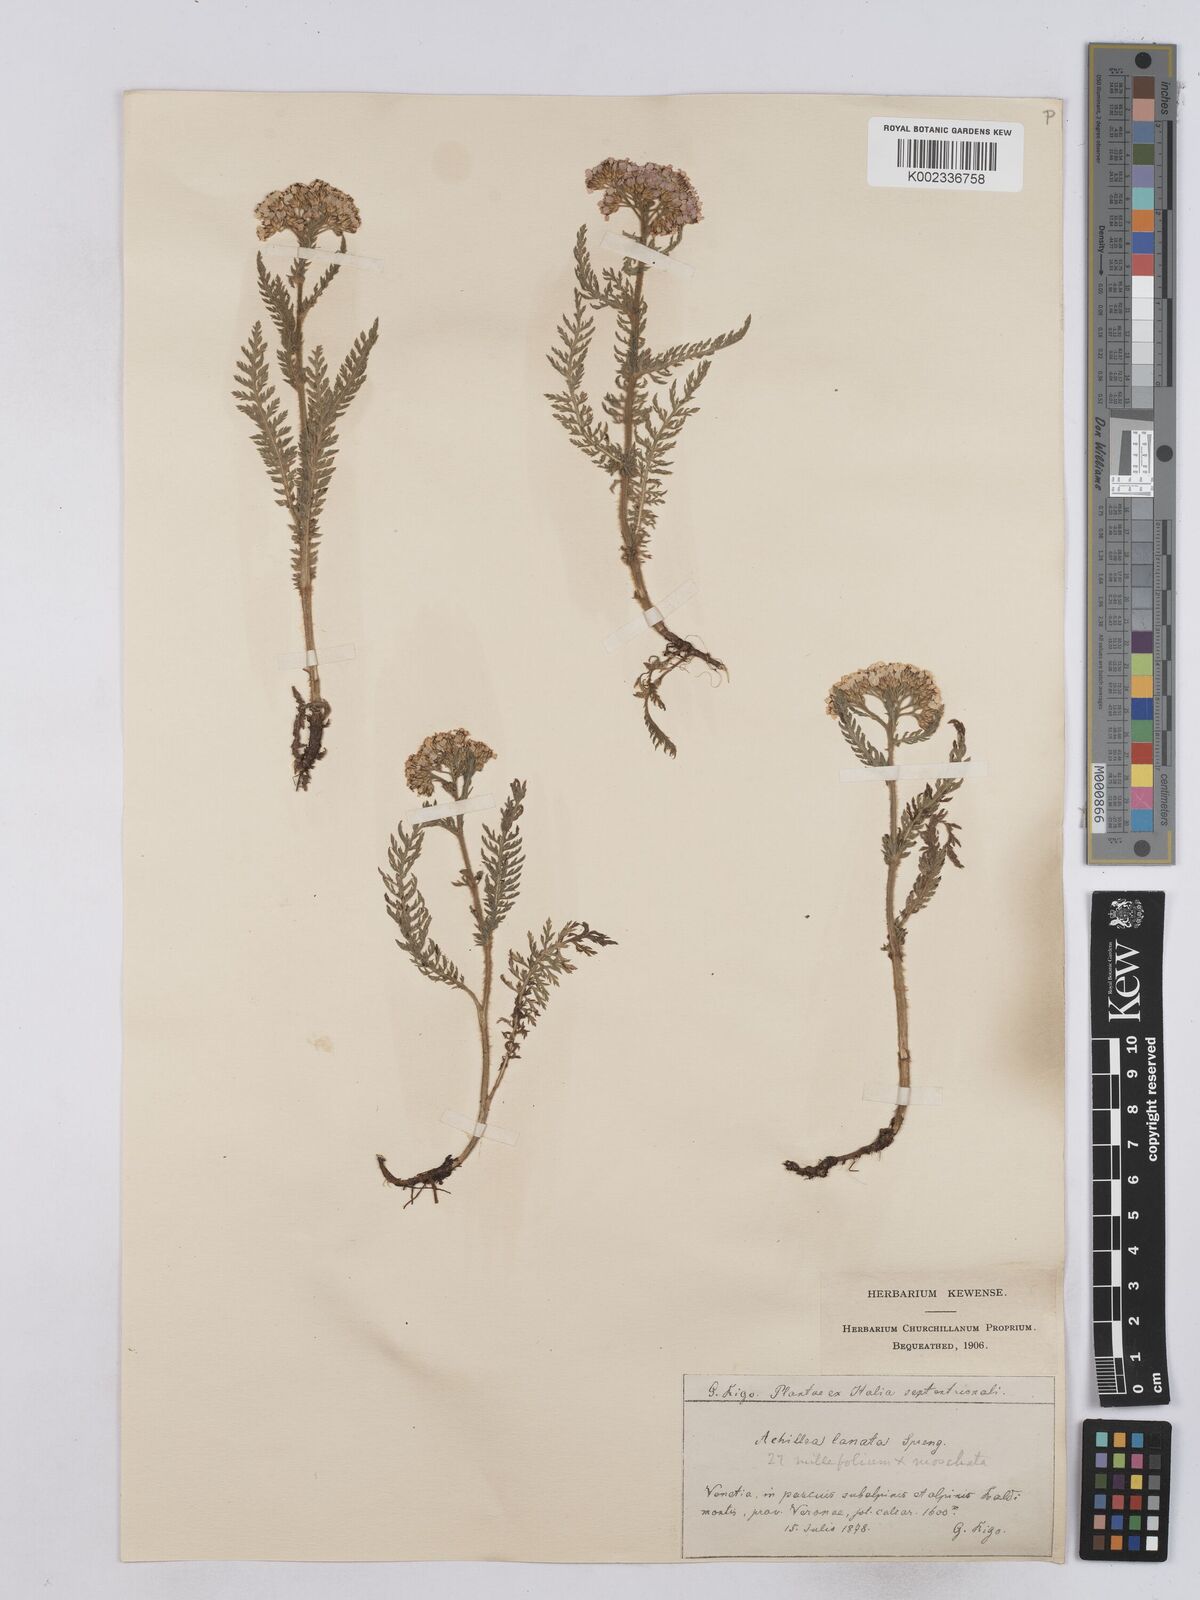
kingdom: Plantae
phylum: Tracheophyta
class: Magnoliopsida
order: Asterales
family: Asteraceae
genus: Achillea
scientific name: Achillea setacea
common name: Bristly yarrow
